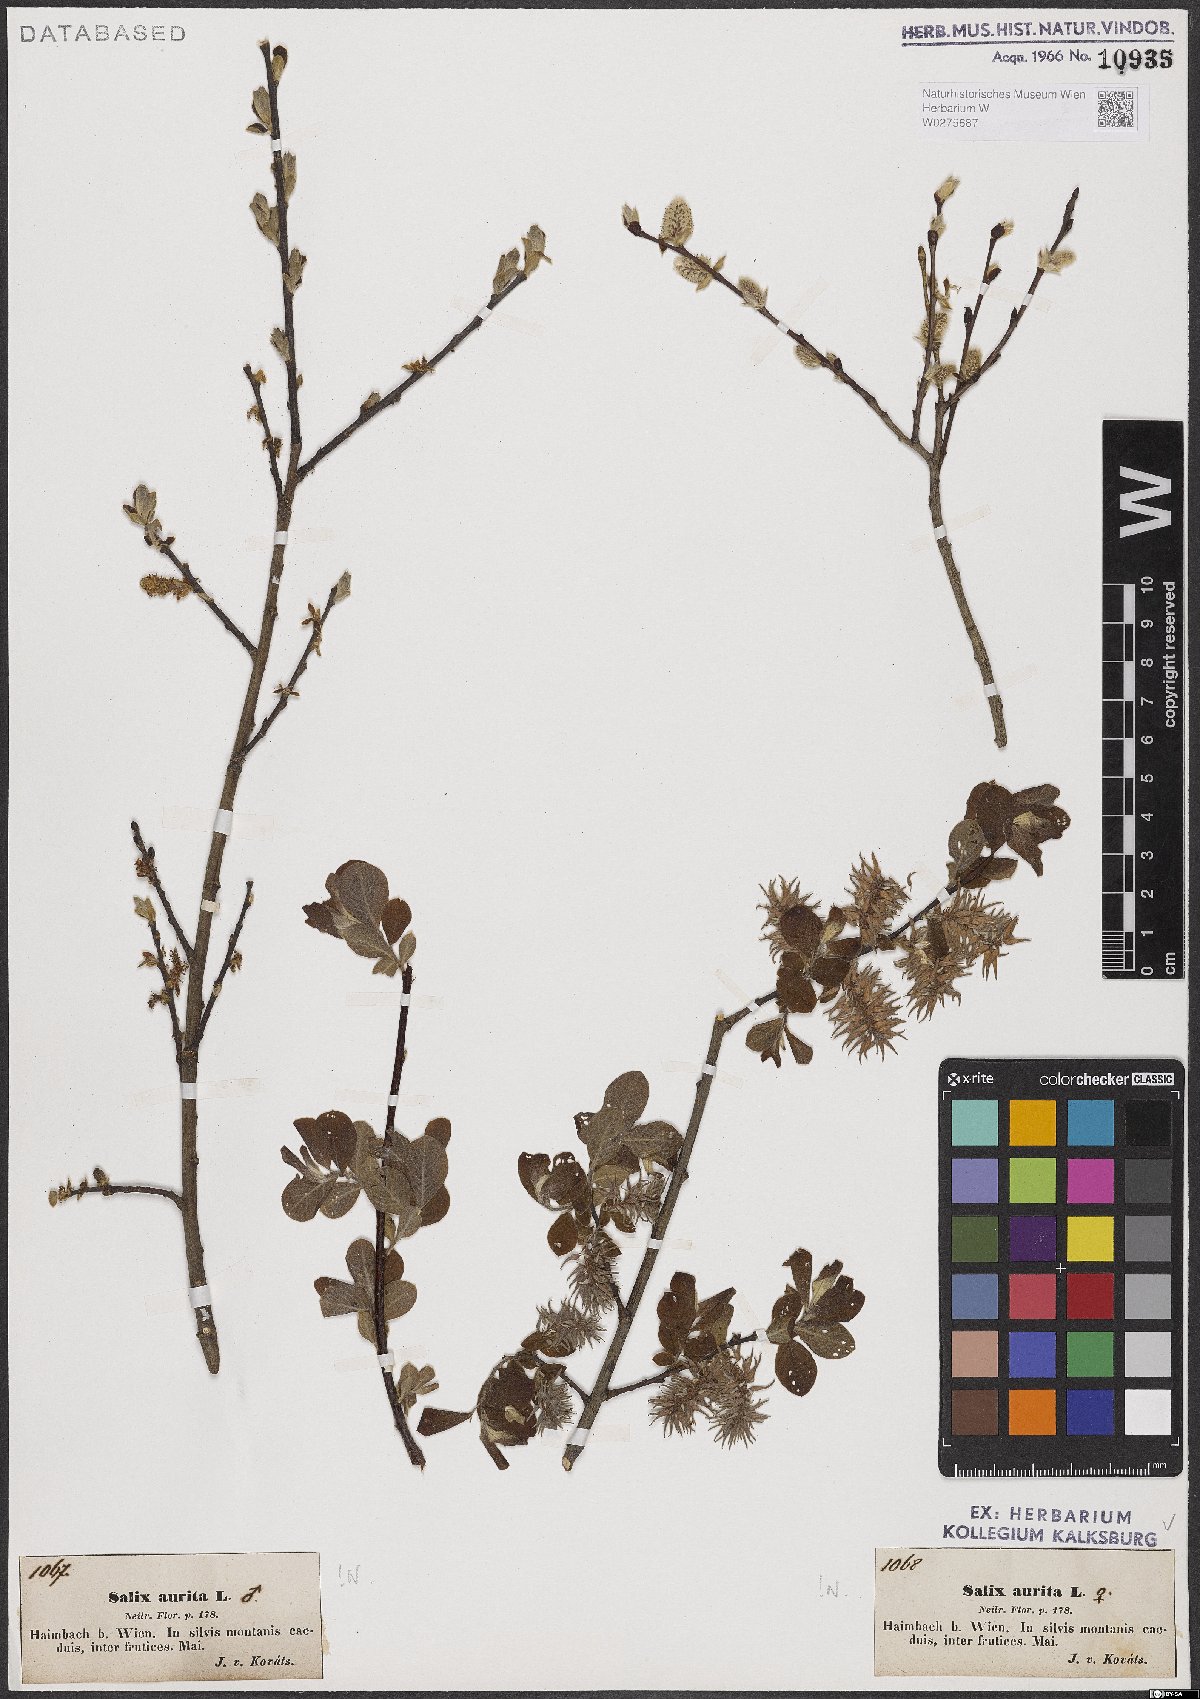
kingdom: Plantae
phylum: Tracheophyta
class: Magnoliopsida
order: Malpighiales
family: Salicaceae
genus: Salix
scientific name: Salix aurita
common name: Eared willow
